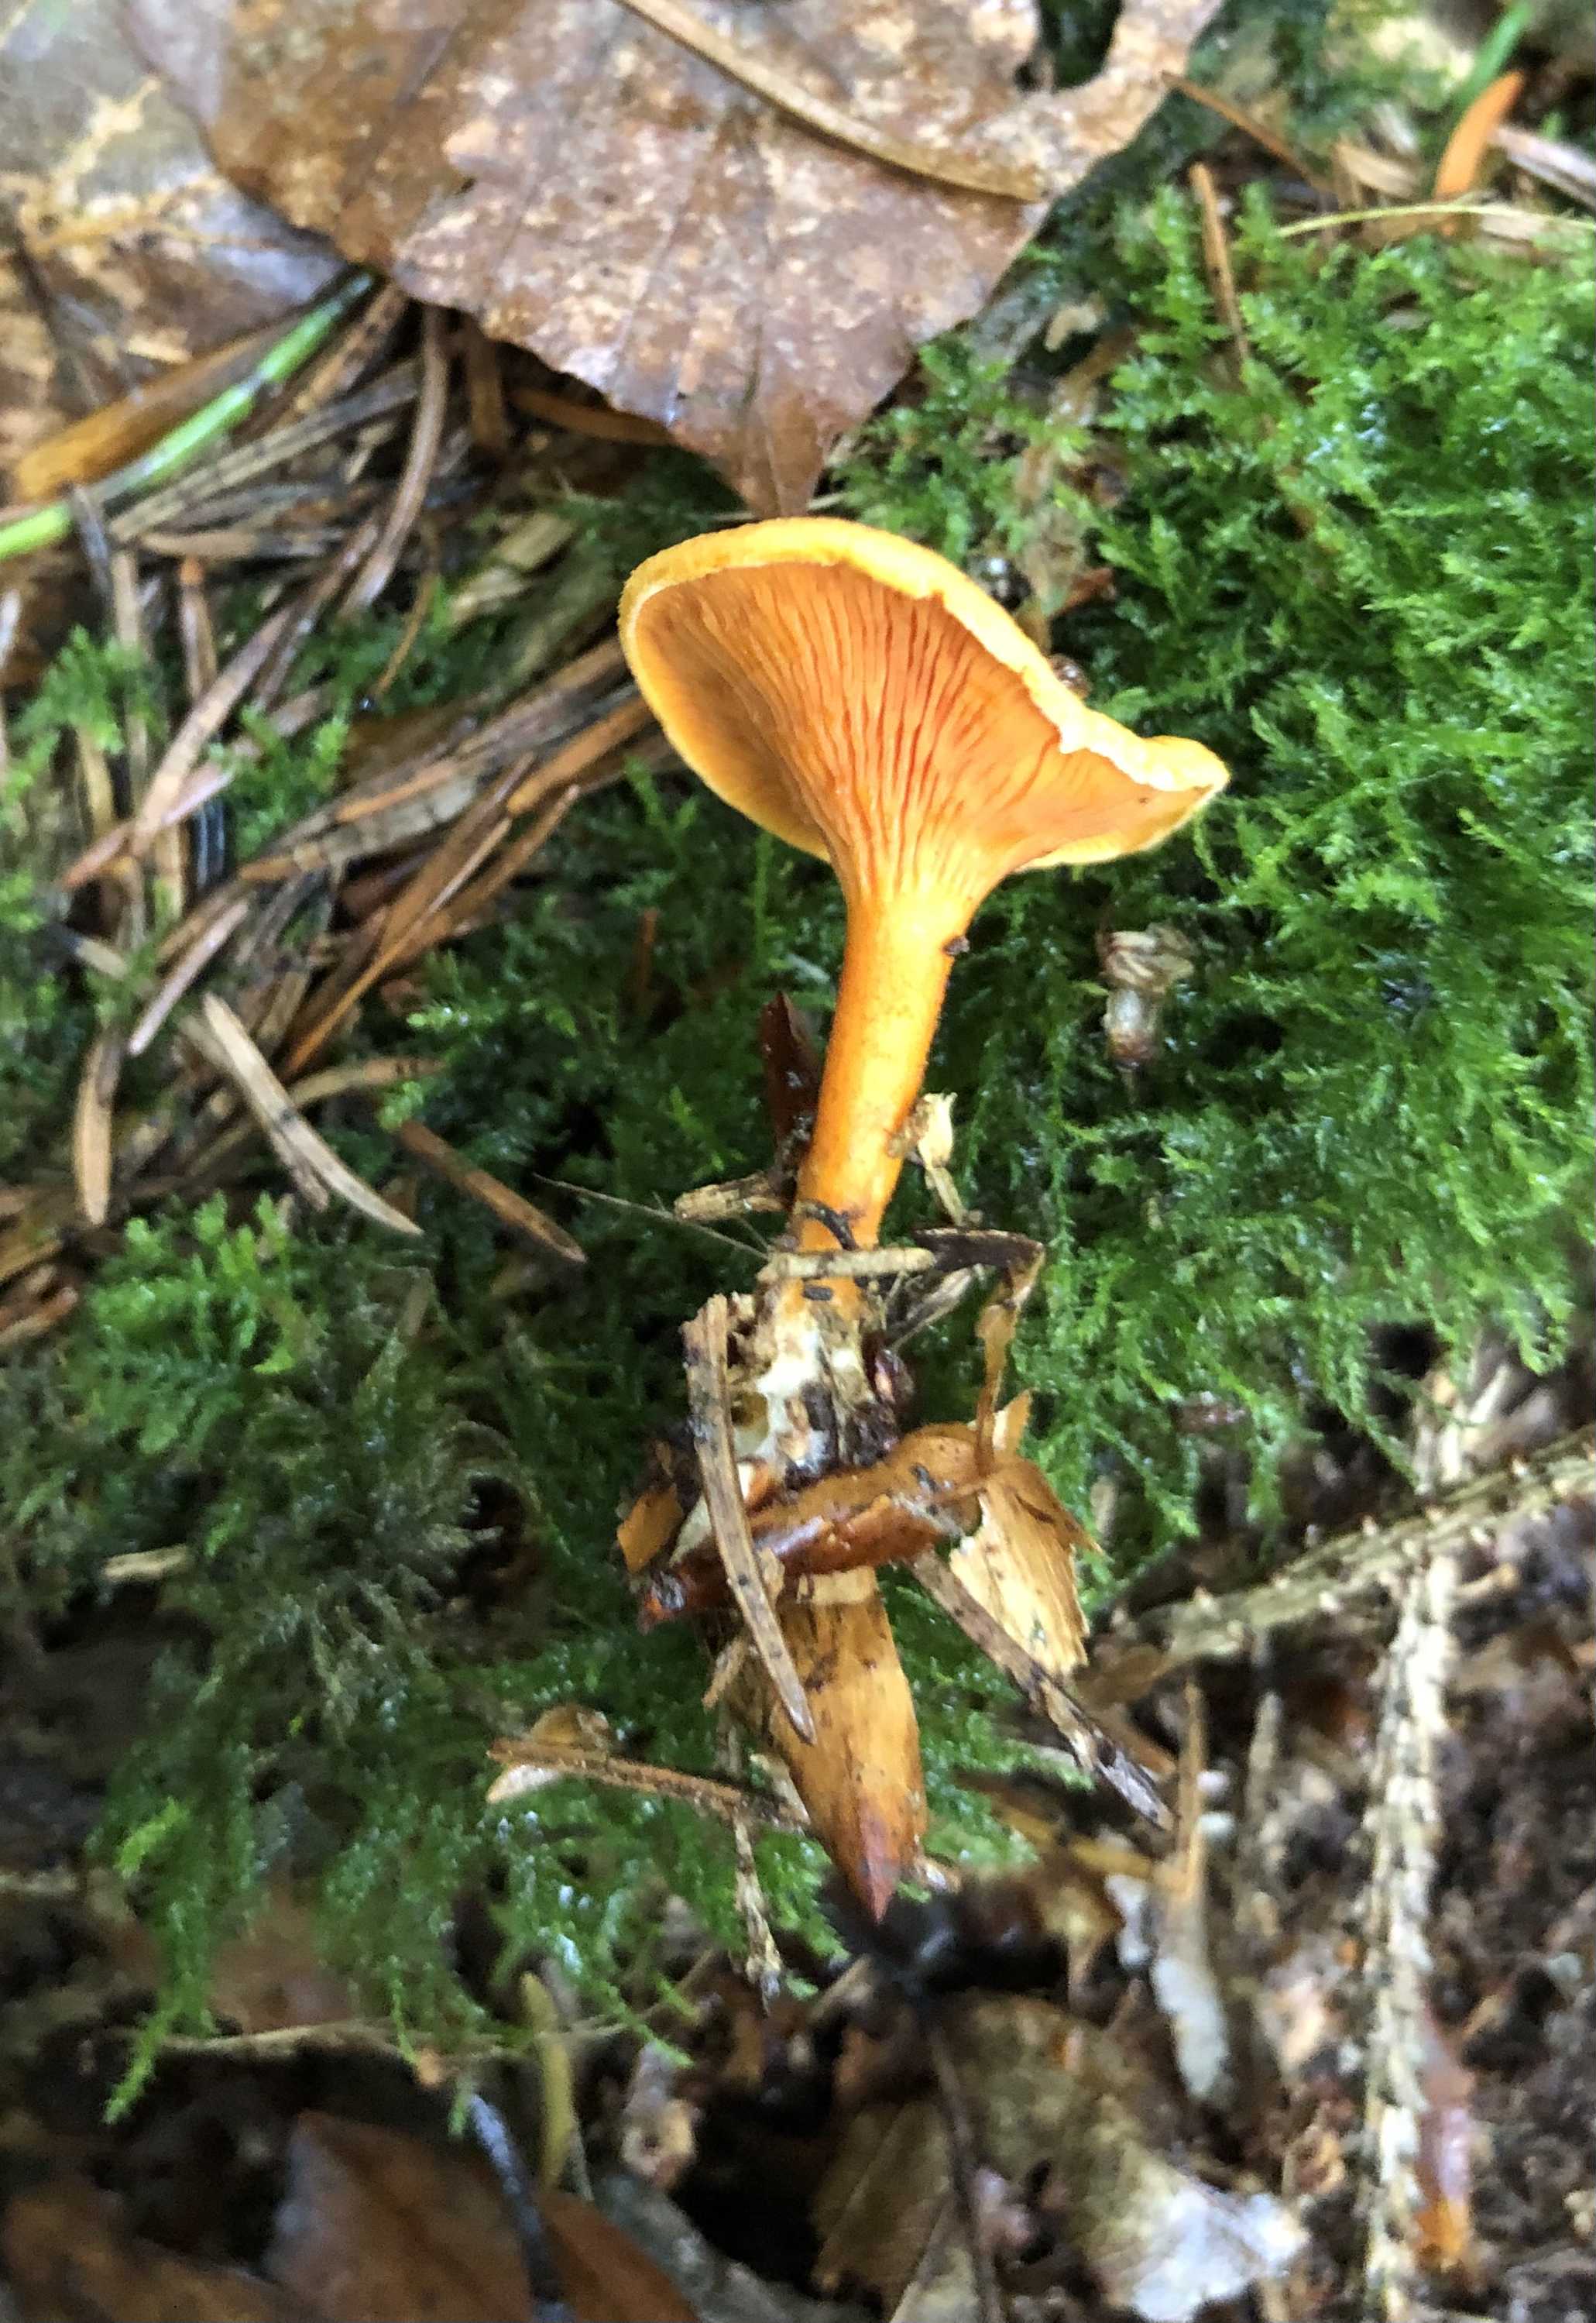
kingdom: Fungi
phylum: Basidiomycota
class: Agaricomycetes
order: Boletales
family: Hygrophoropsidaceae
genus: Hygrophoropsis
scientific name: Hygrophoropsis aurantiaca
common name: almindelig orangekantarel
